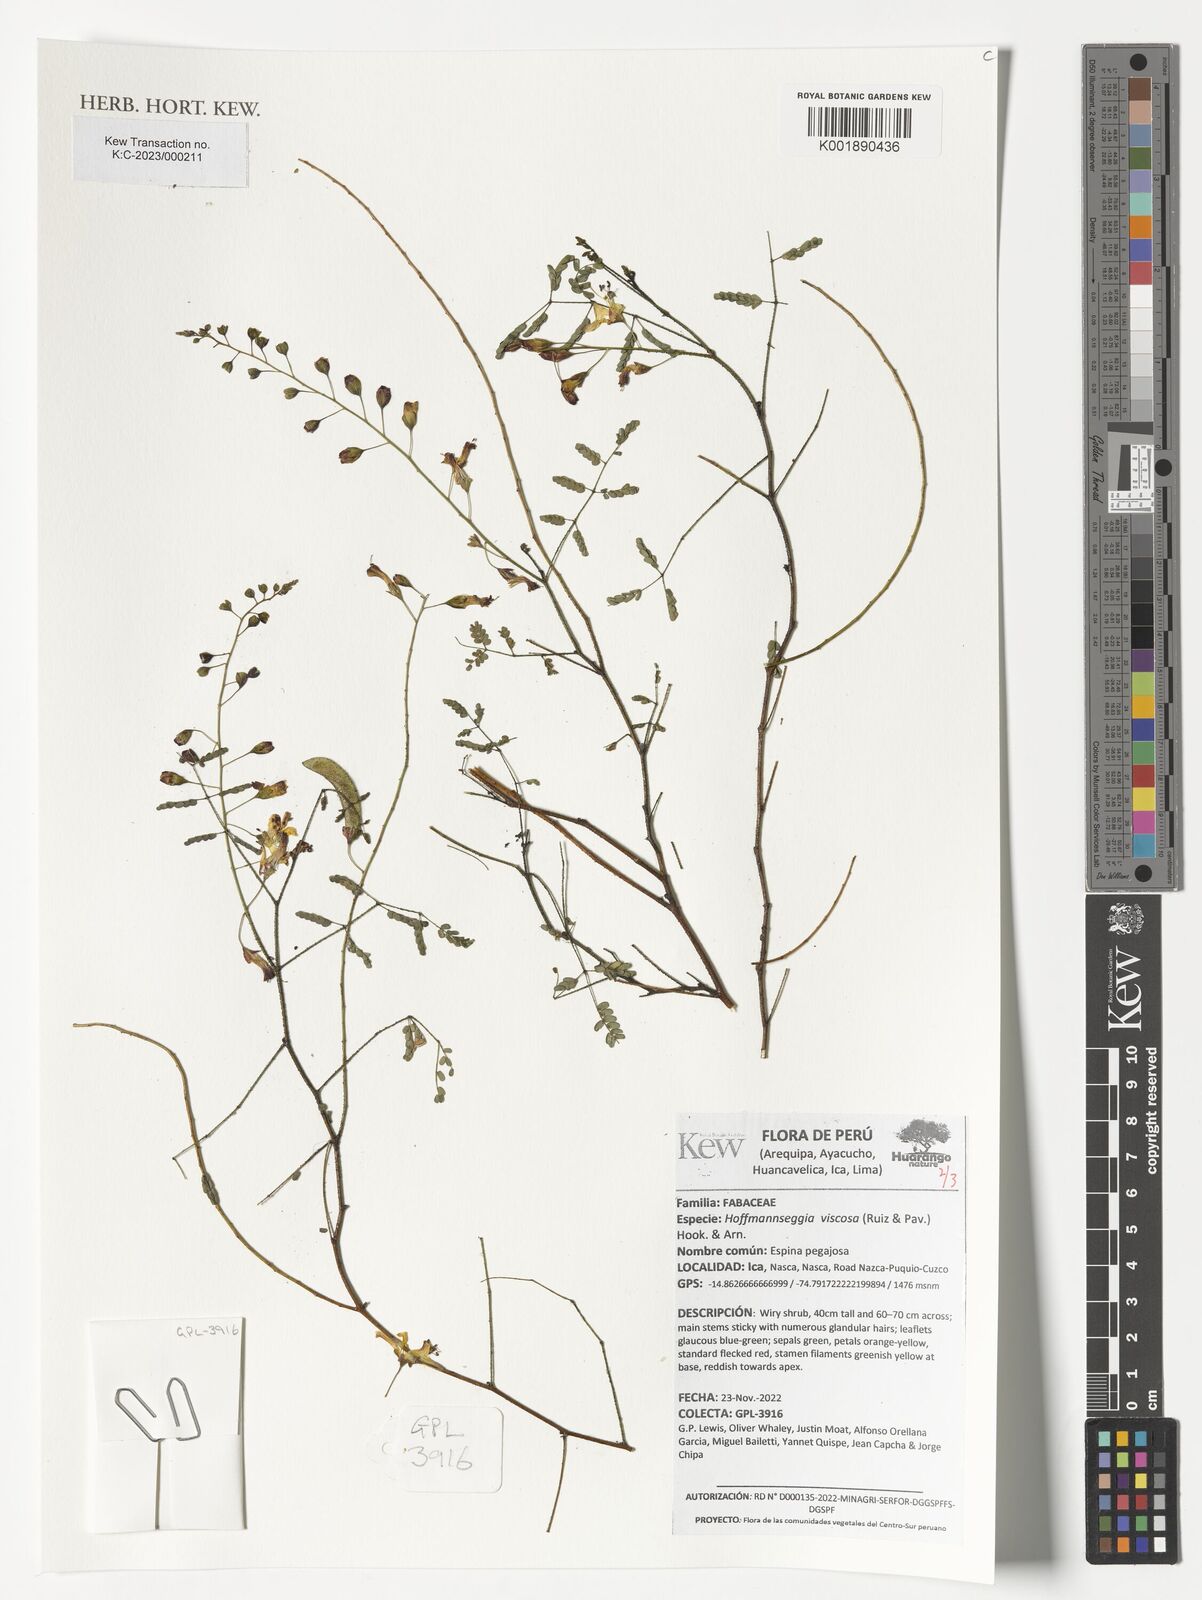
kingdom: Plantae
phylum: Tracheophyta
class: Magnoliopsida
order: Fabales
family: Fabaceae
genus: Hoffmannseggia
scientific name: Hoffmannseggia viscosa
